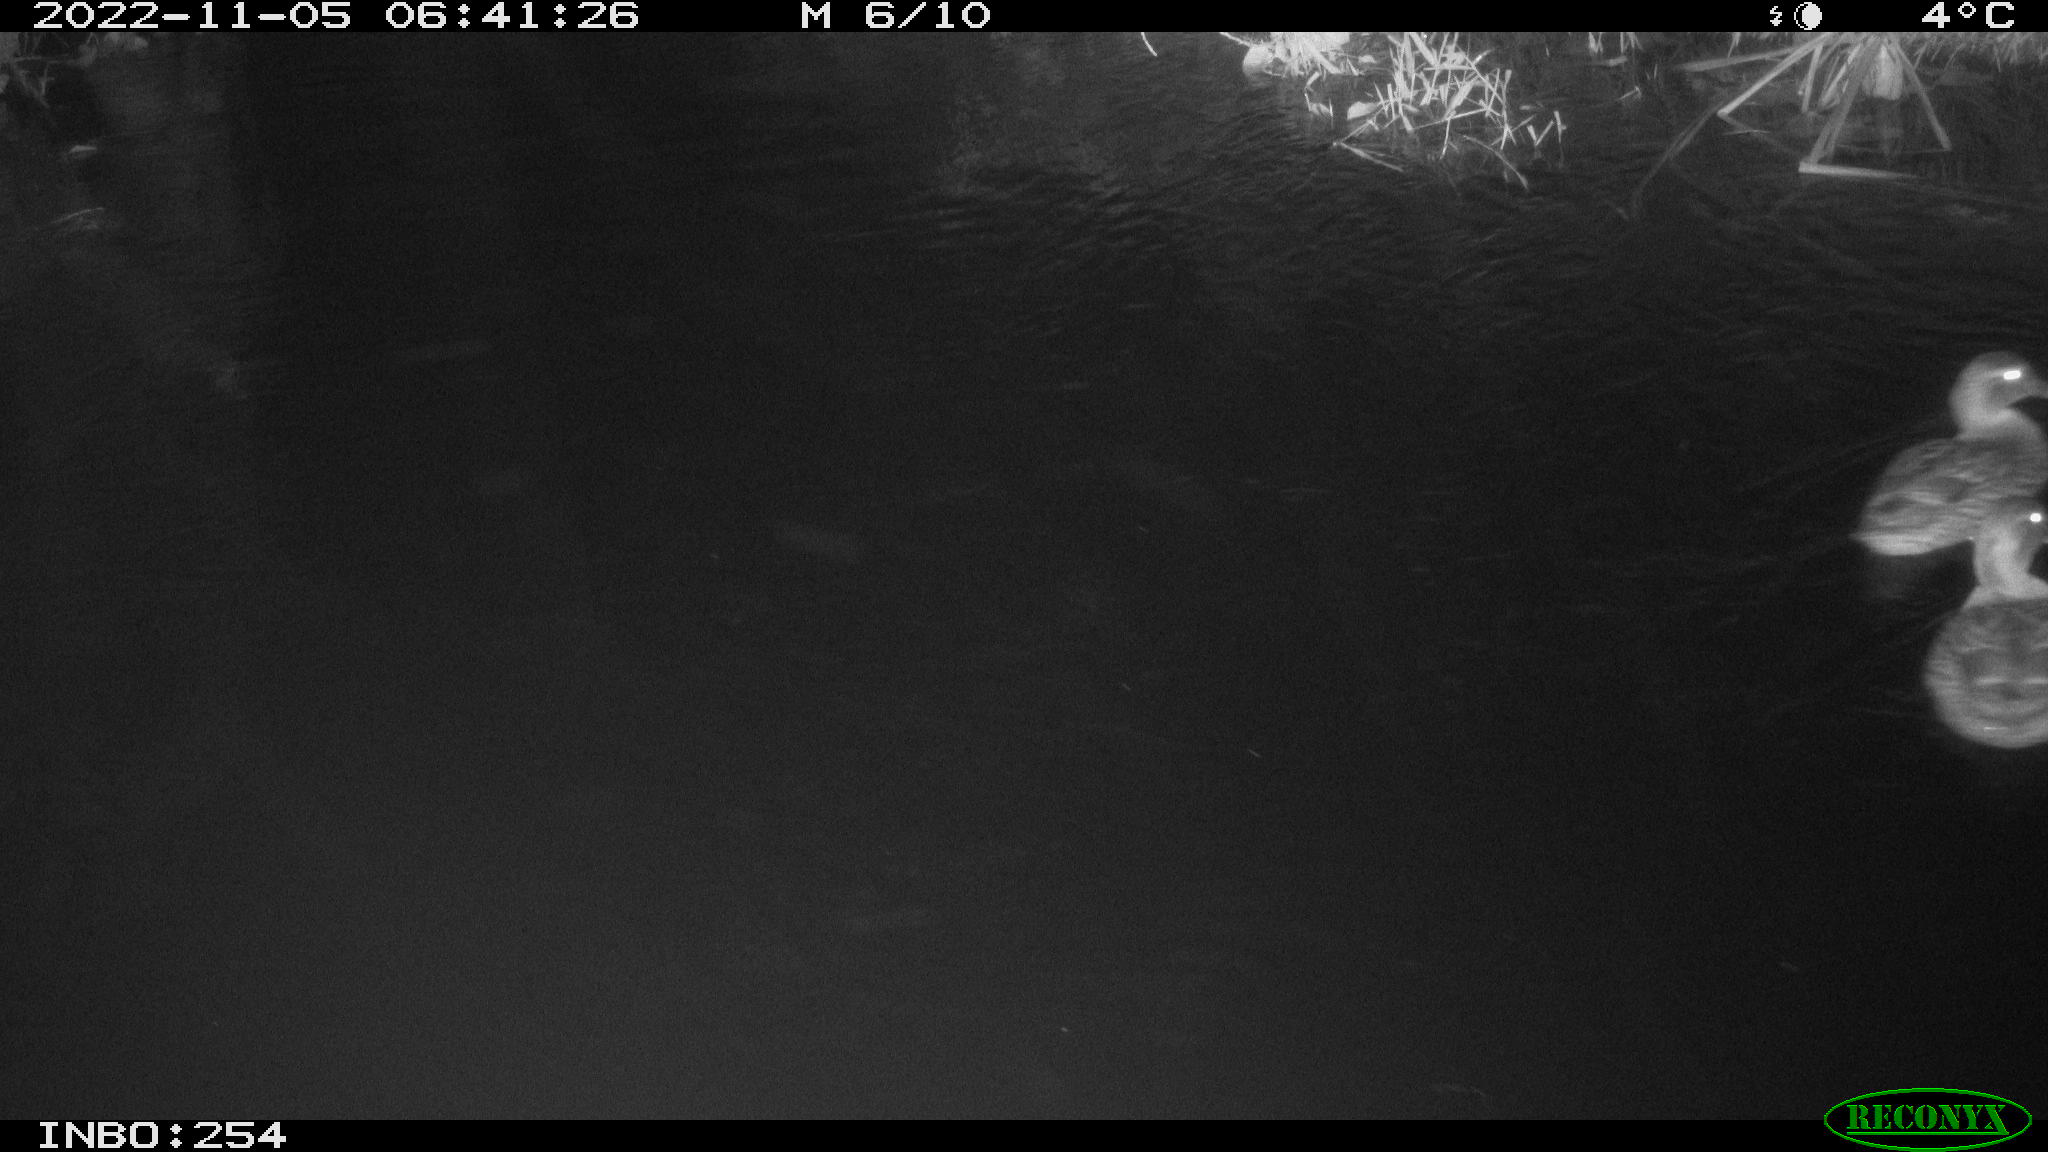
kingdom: Animalia
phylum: Chordata
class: Aves
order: Anseriformes
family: Anatidae
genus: Anas
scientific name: Anas
